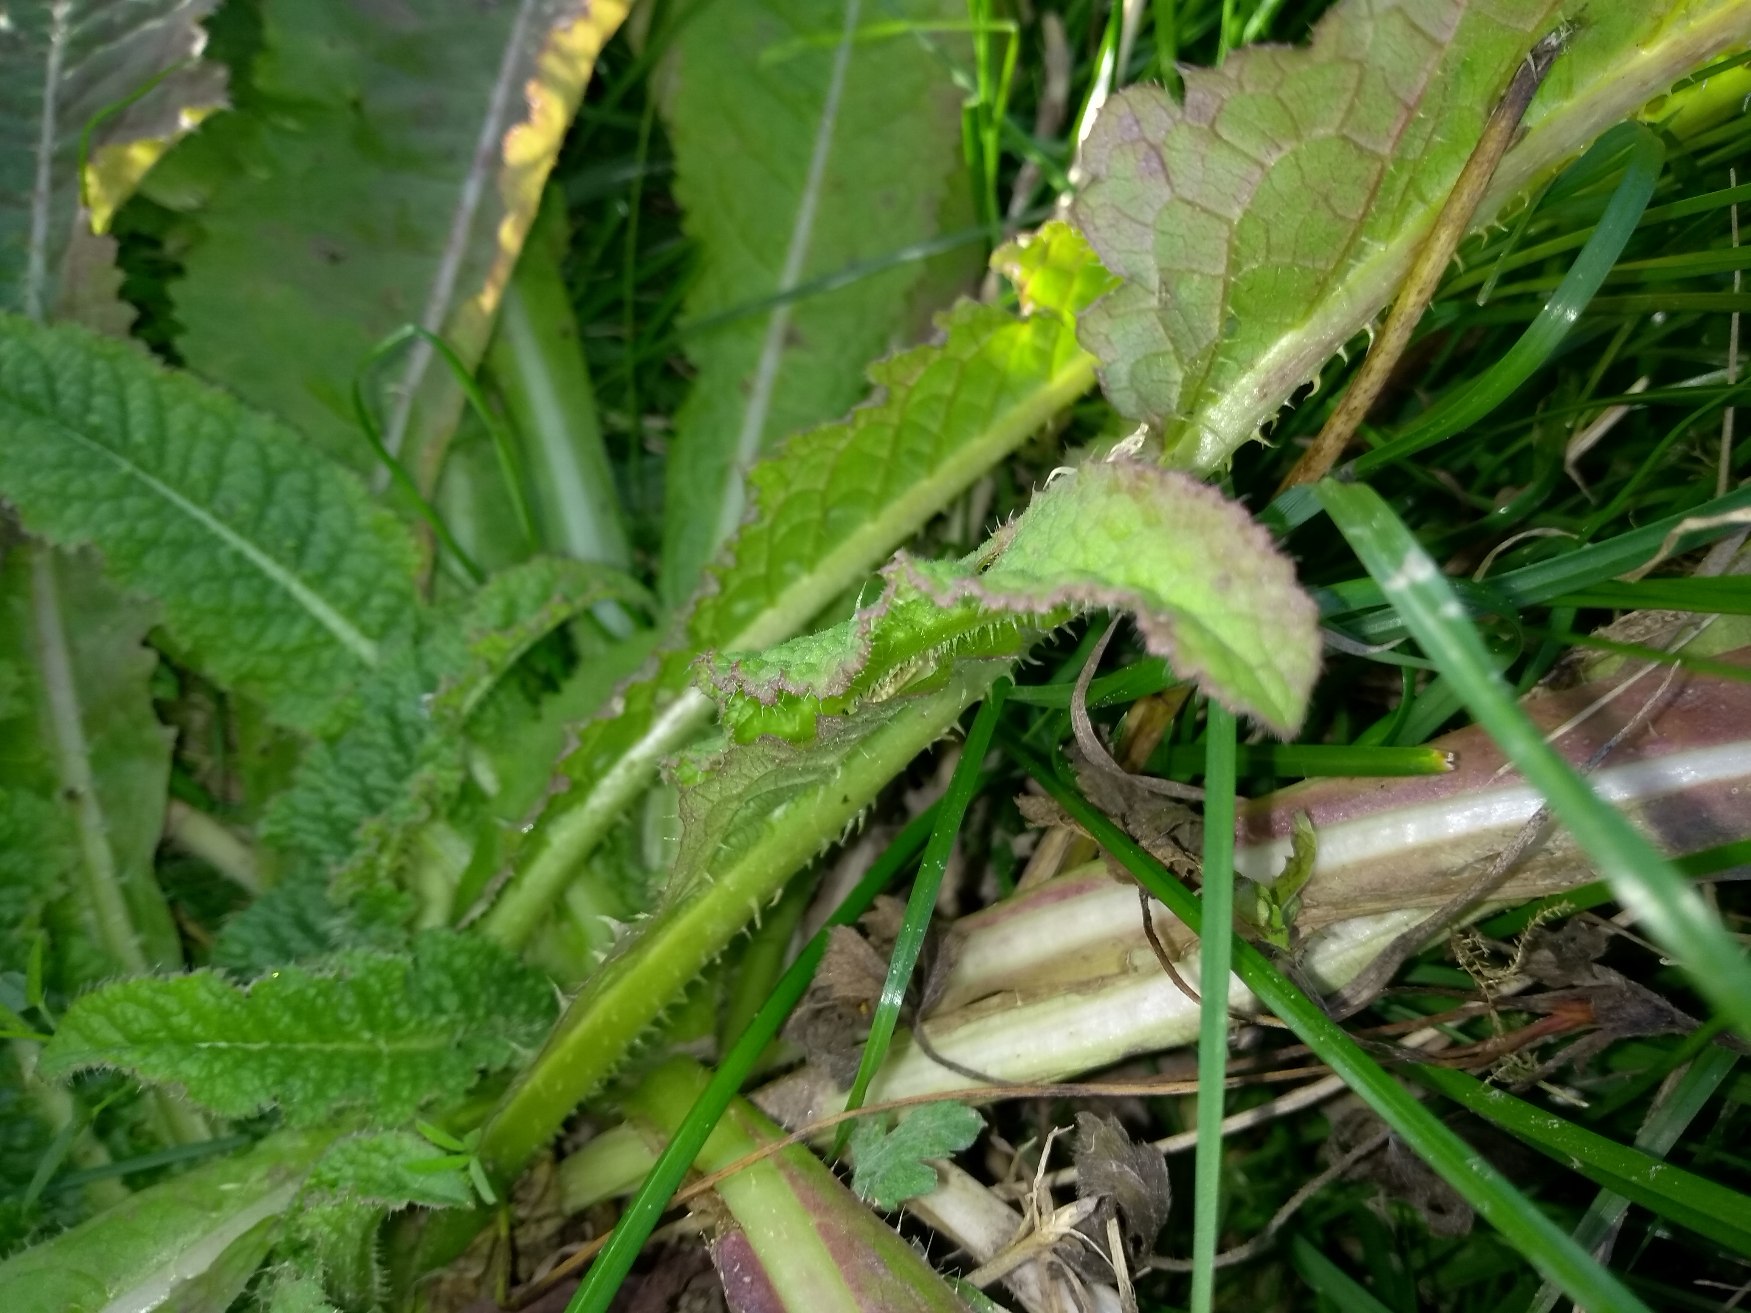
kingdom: Plantae
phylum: Tracheophyta
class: Magnoliopsida
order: Dipsacales
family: Caprifoliaceae
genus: Dipsacus
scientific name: Dipsacus fullonum
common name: Gærde-kartebolle
